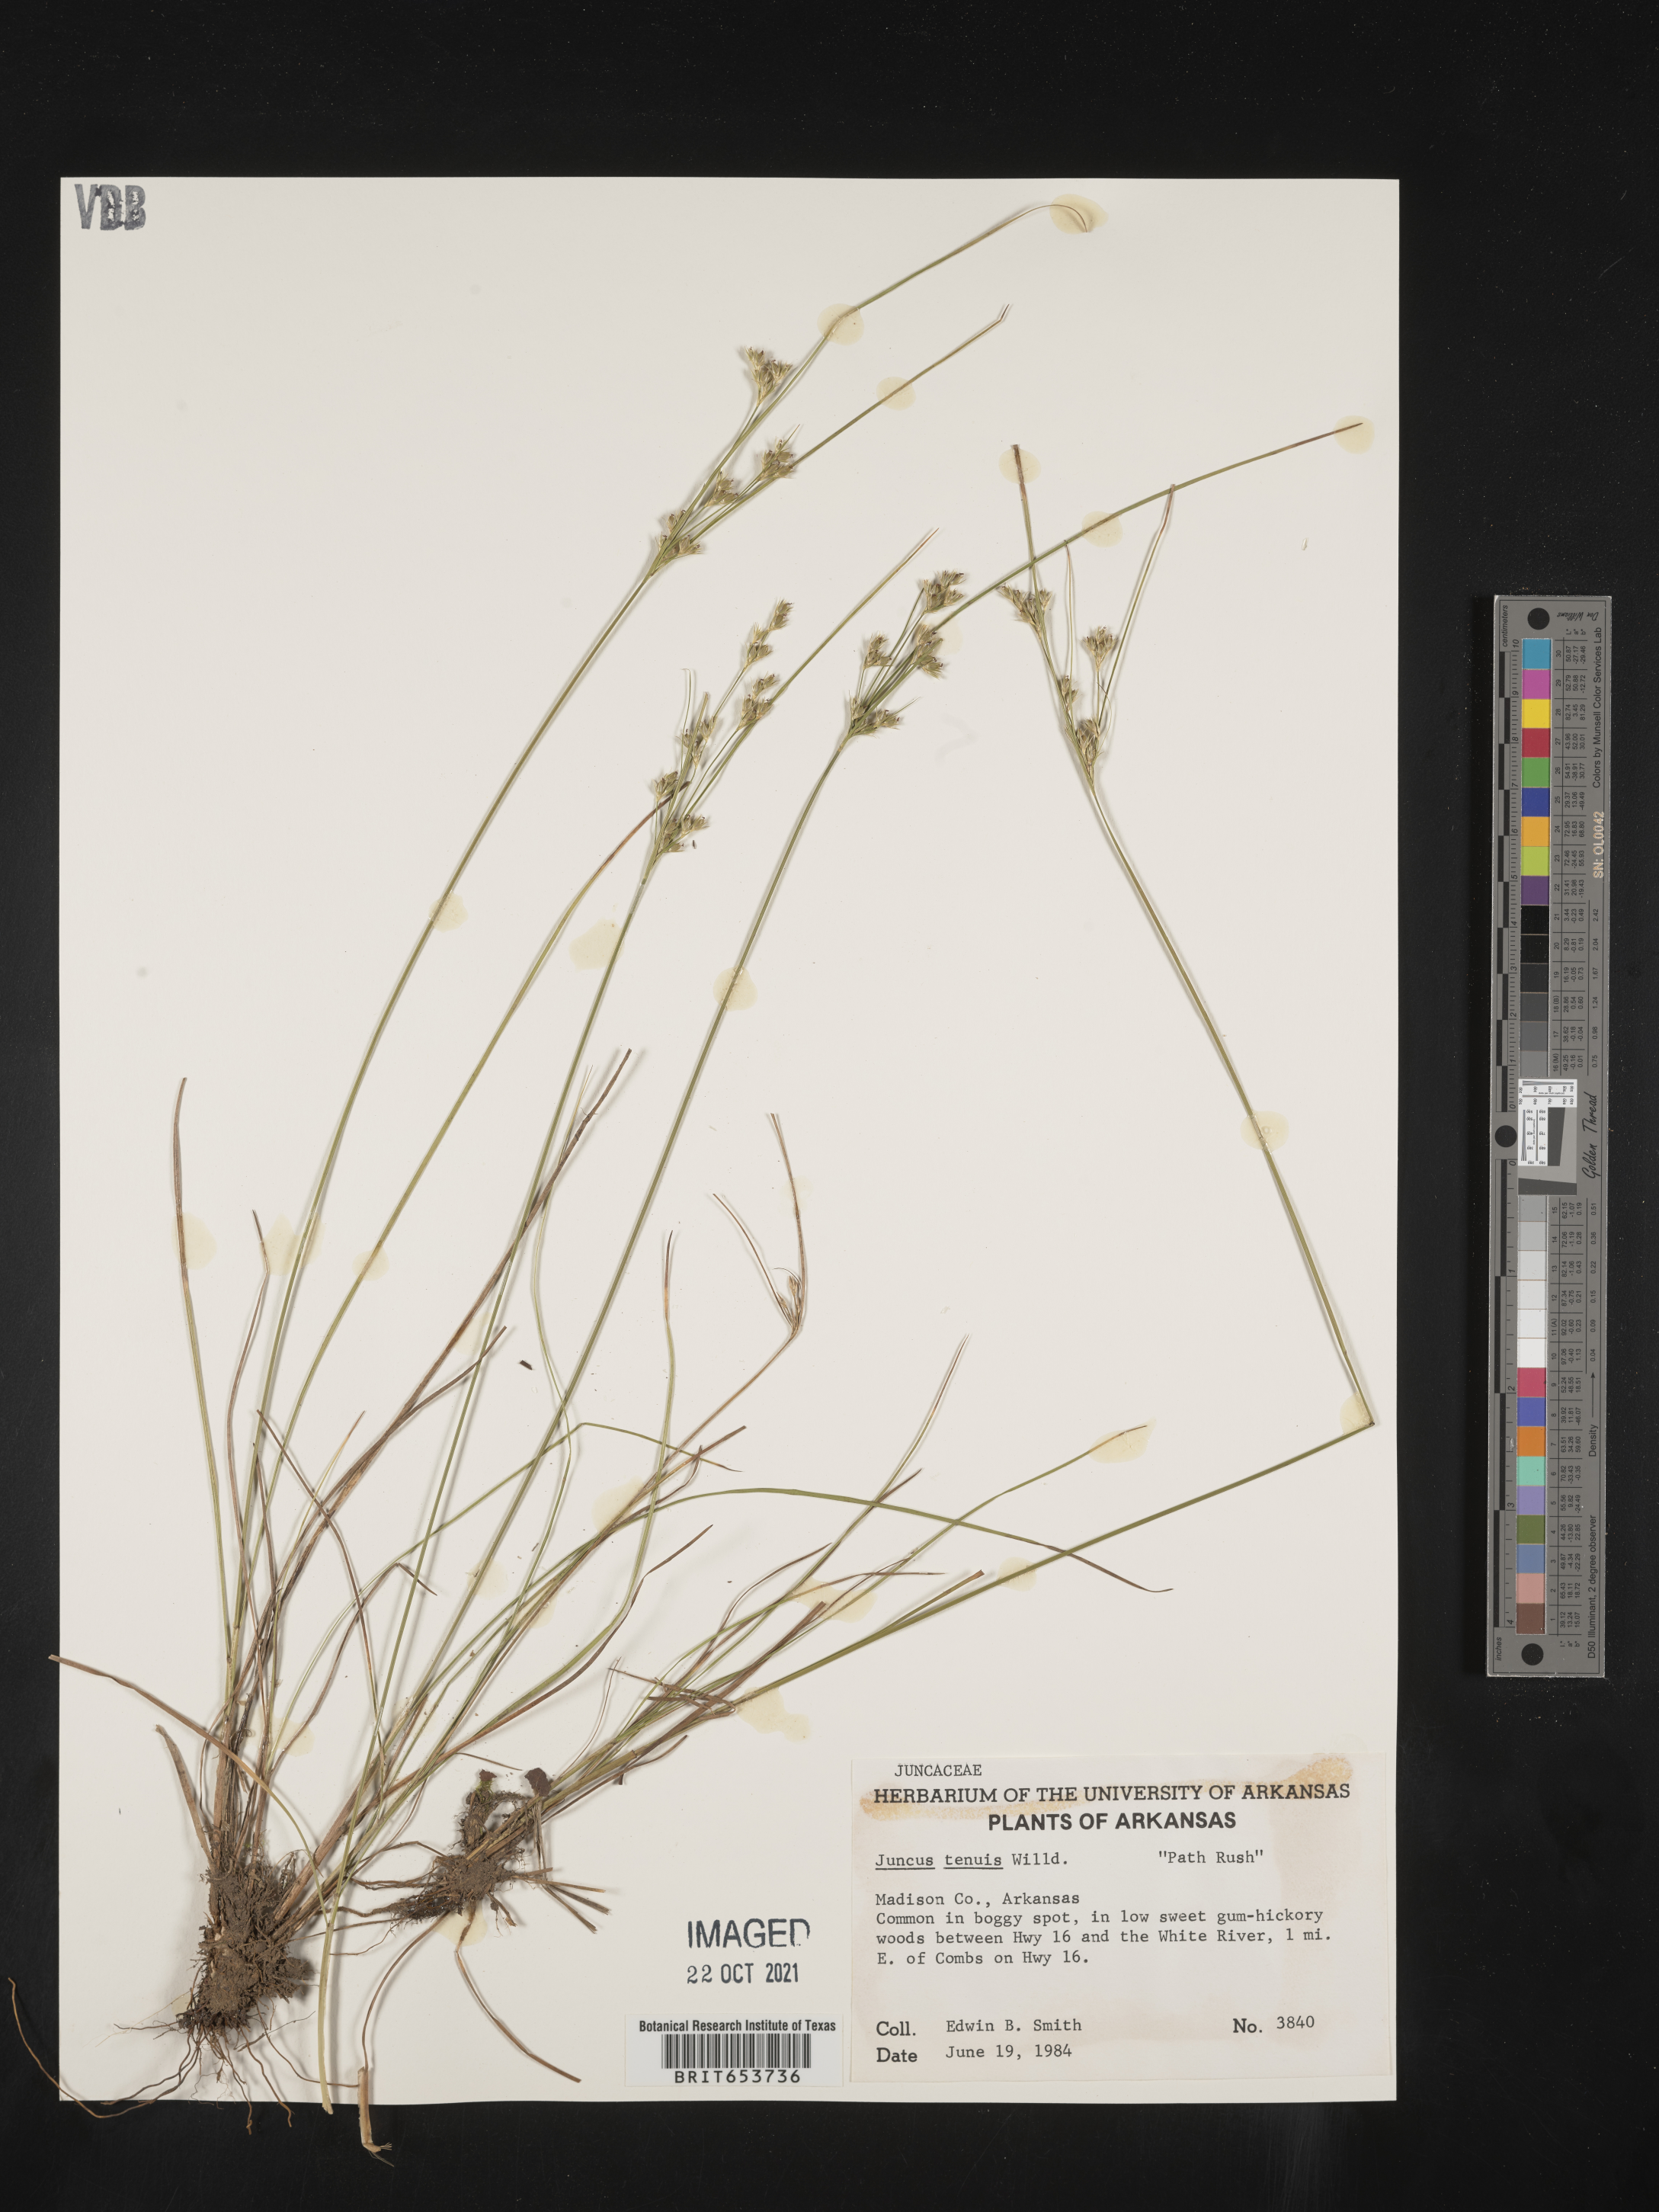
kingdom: Plantae
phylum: Tracheophyta
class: Liliopsida
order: Poales
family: Juncaceae
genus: Juncus
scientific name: Juncus tenuis
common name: Slender rush
